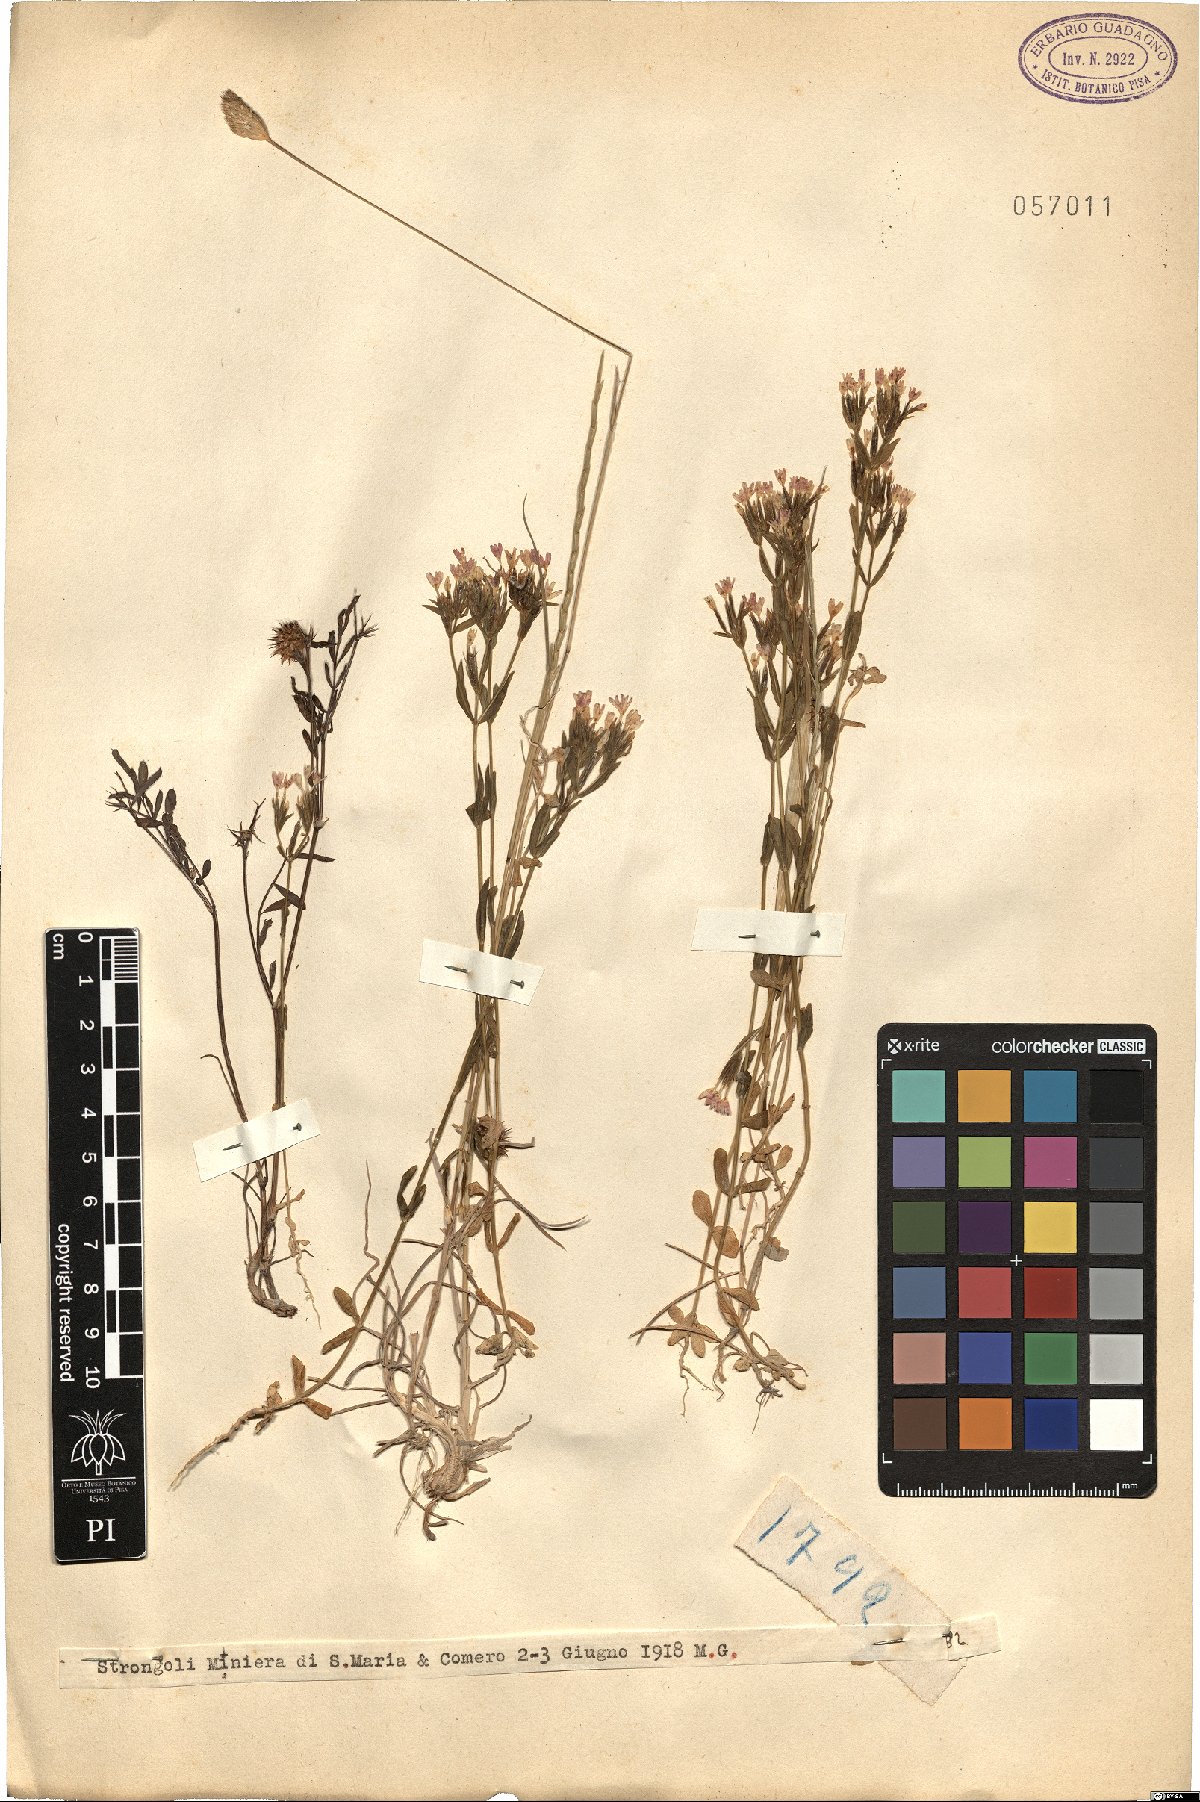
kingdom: Plantae
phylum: Tracheophyta
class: Magnoliopsida
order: Gentianales
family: Gentianaceae
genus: Erythraea
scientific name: Erythraea
